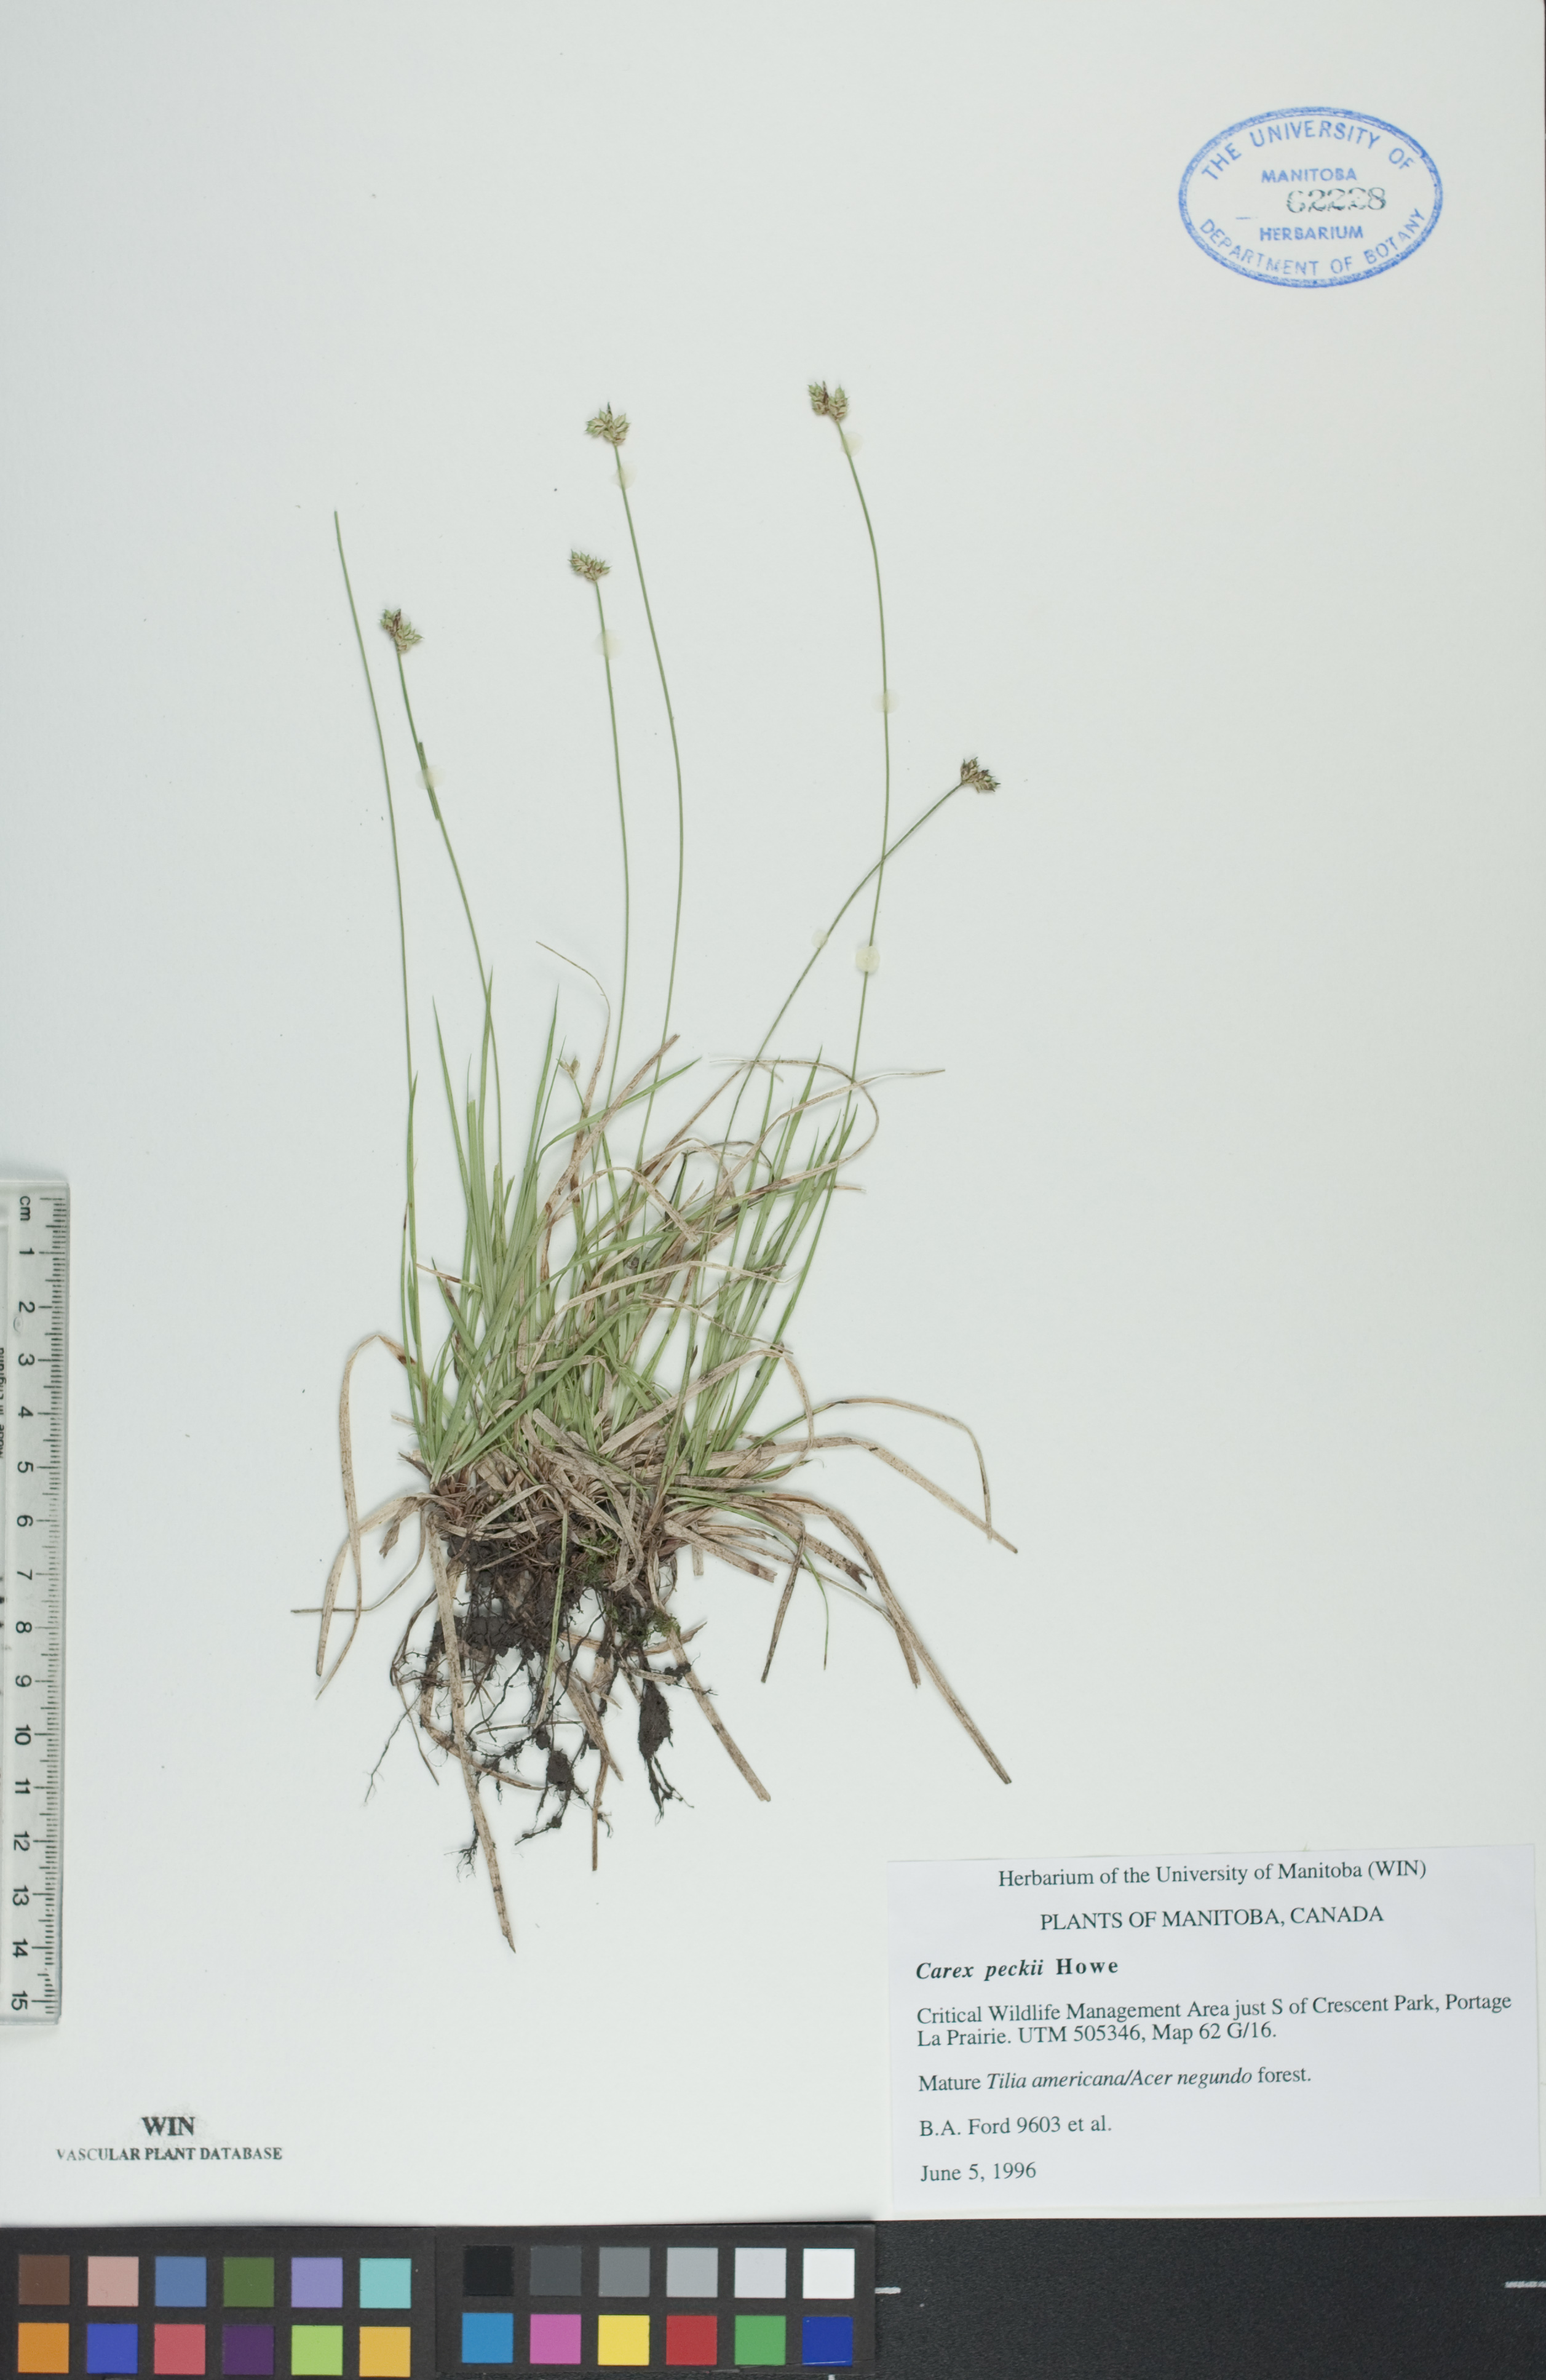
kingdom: Plantae
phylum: Tracheophyta
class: Liliopsida
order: Poales
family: Cyperaceae
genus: Carex
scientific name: Carex peckii
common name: Peck's oak sedge
